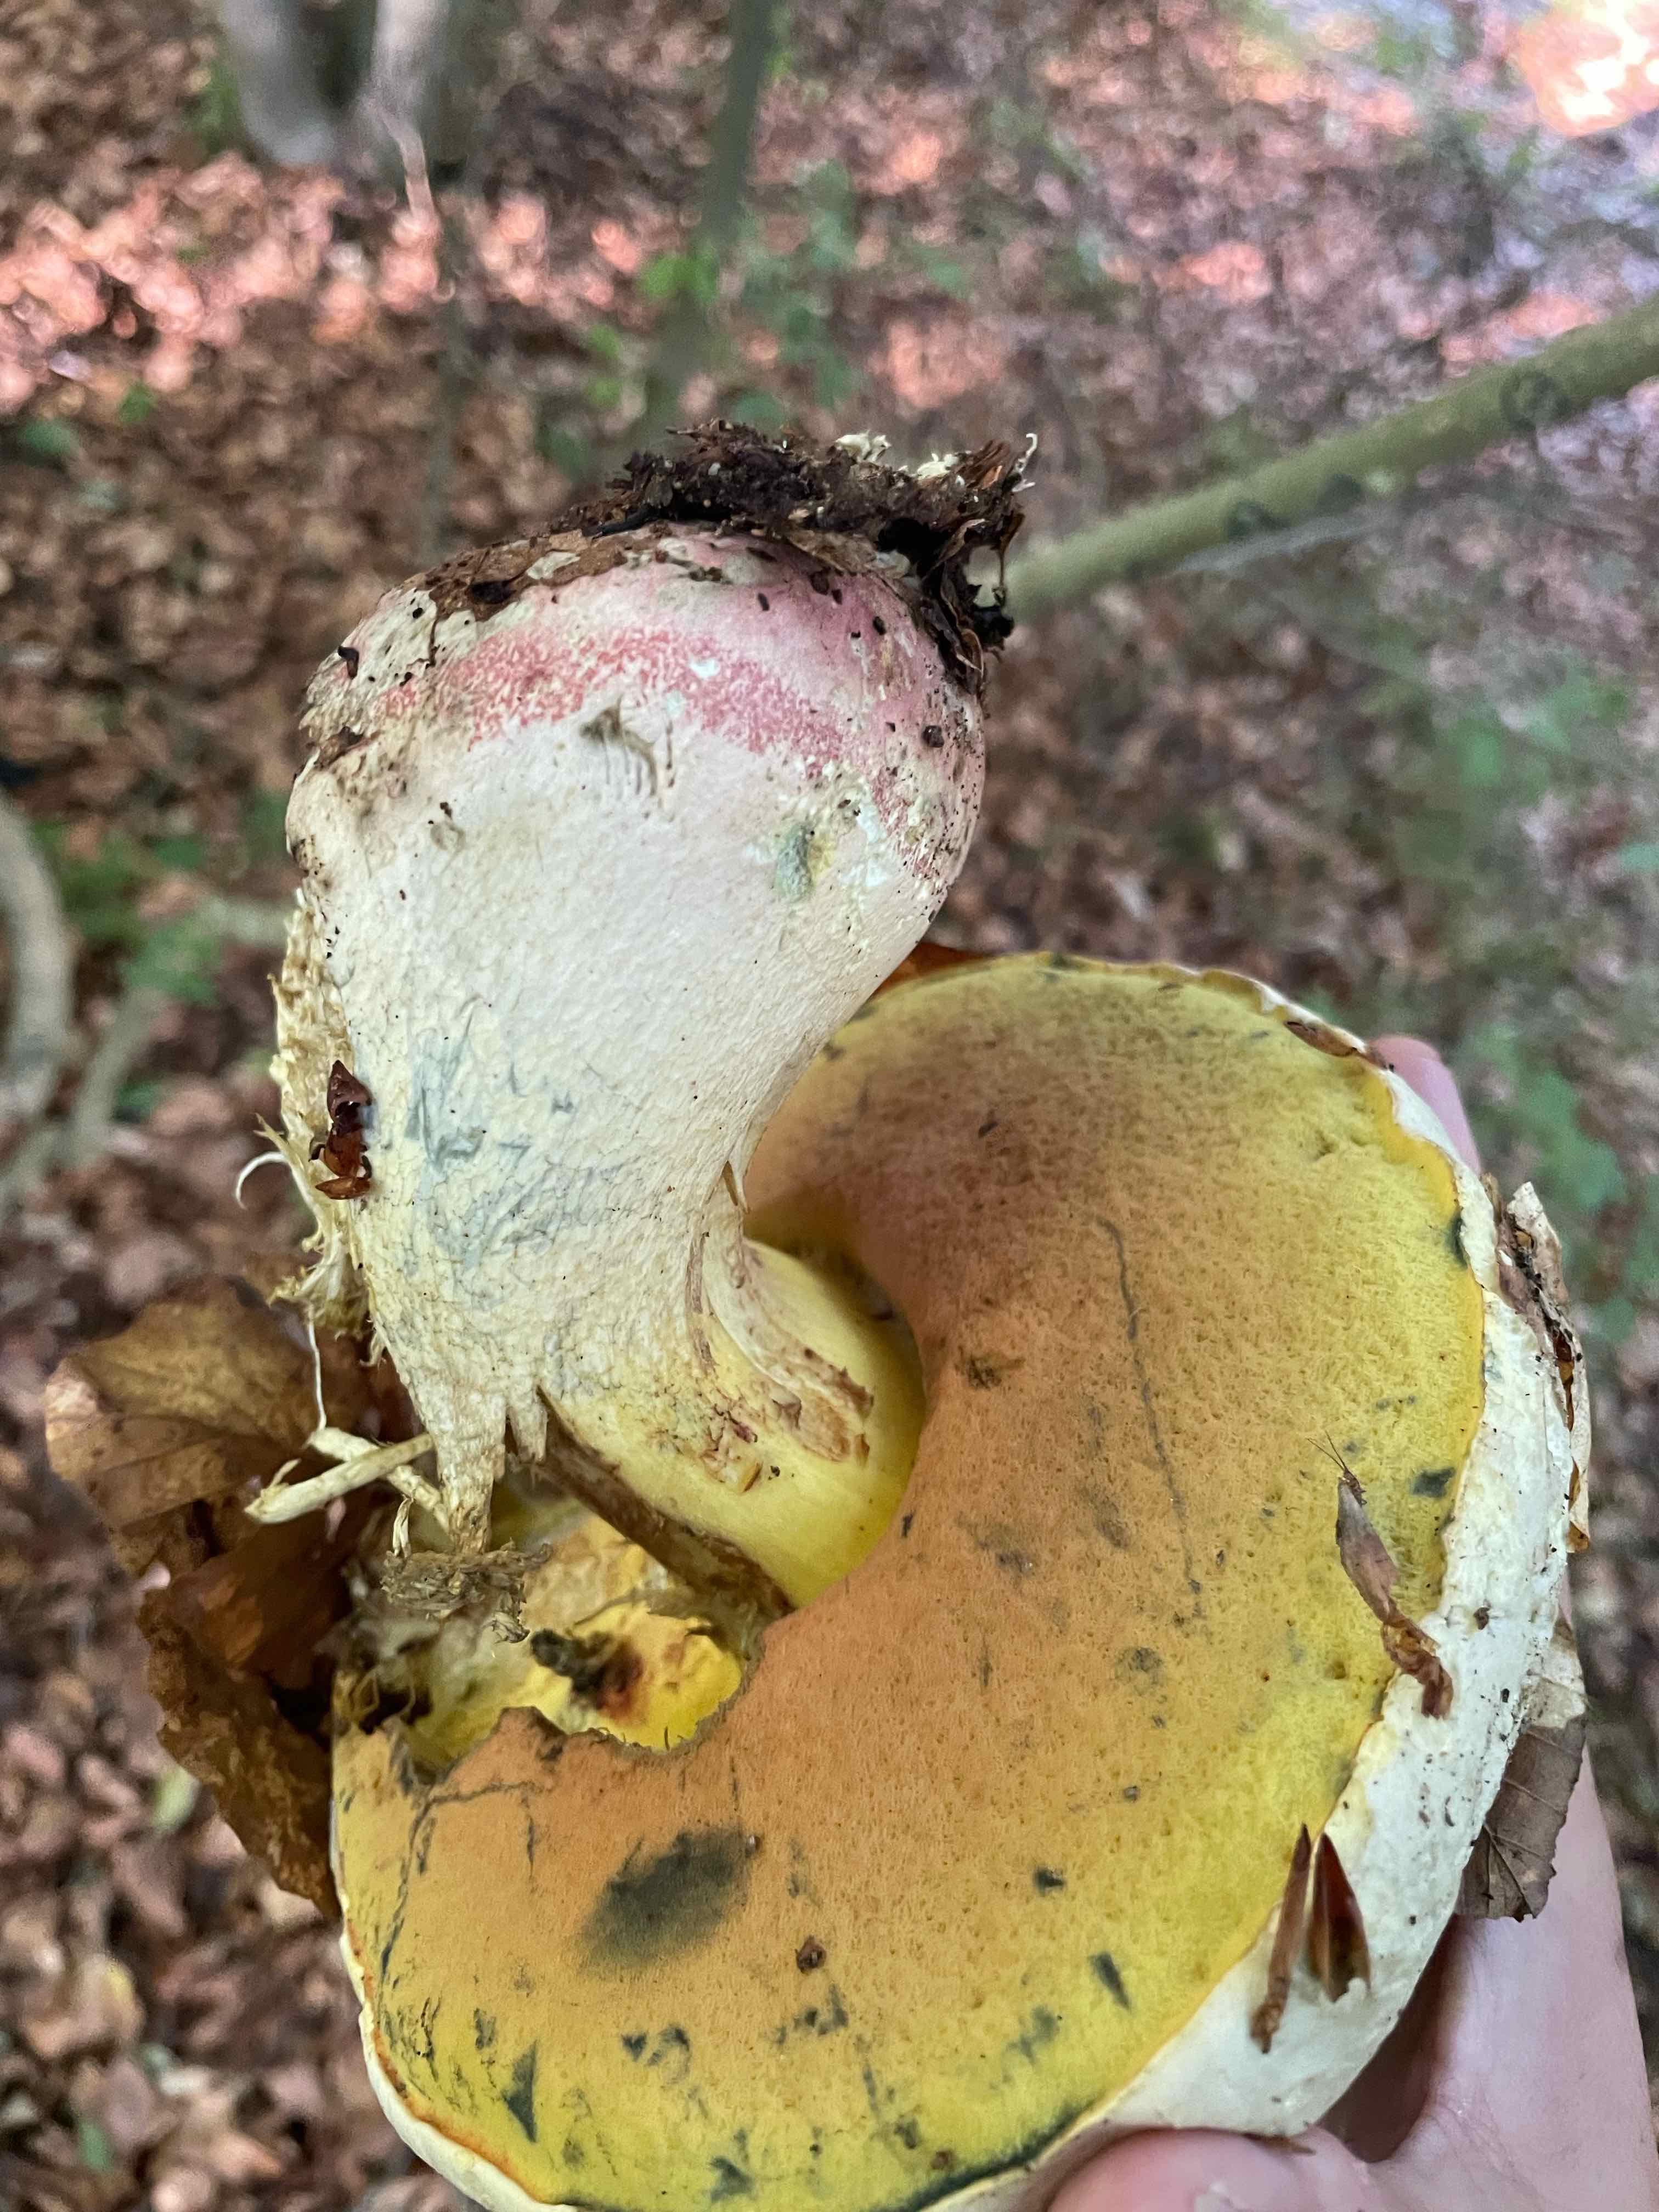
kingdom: Fungi
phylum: Basidiomycota
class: Agaricomycetes
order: Boletales
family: Boletaceae
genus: Rubroboletus
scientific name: Rubroboletus satanas
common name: Satans rørhat
